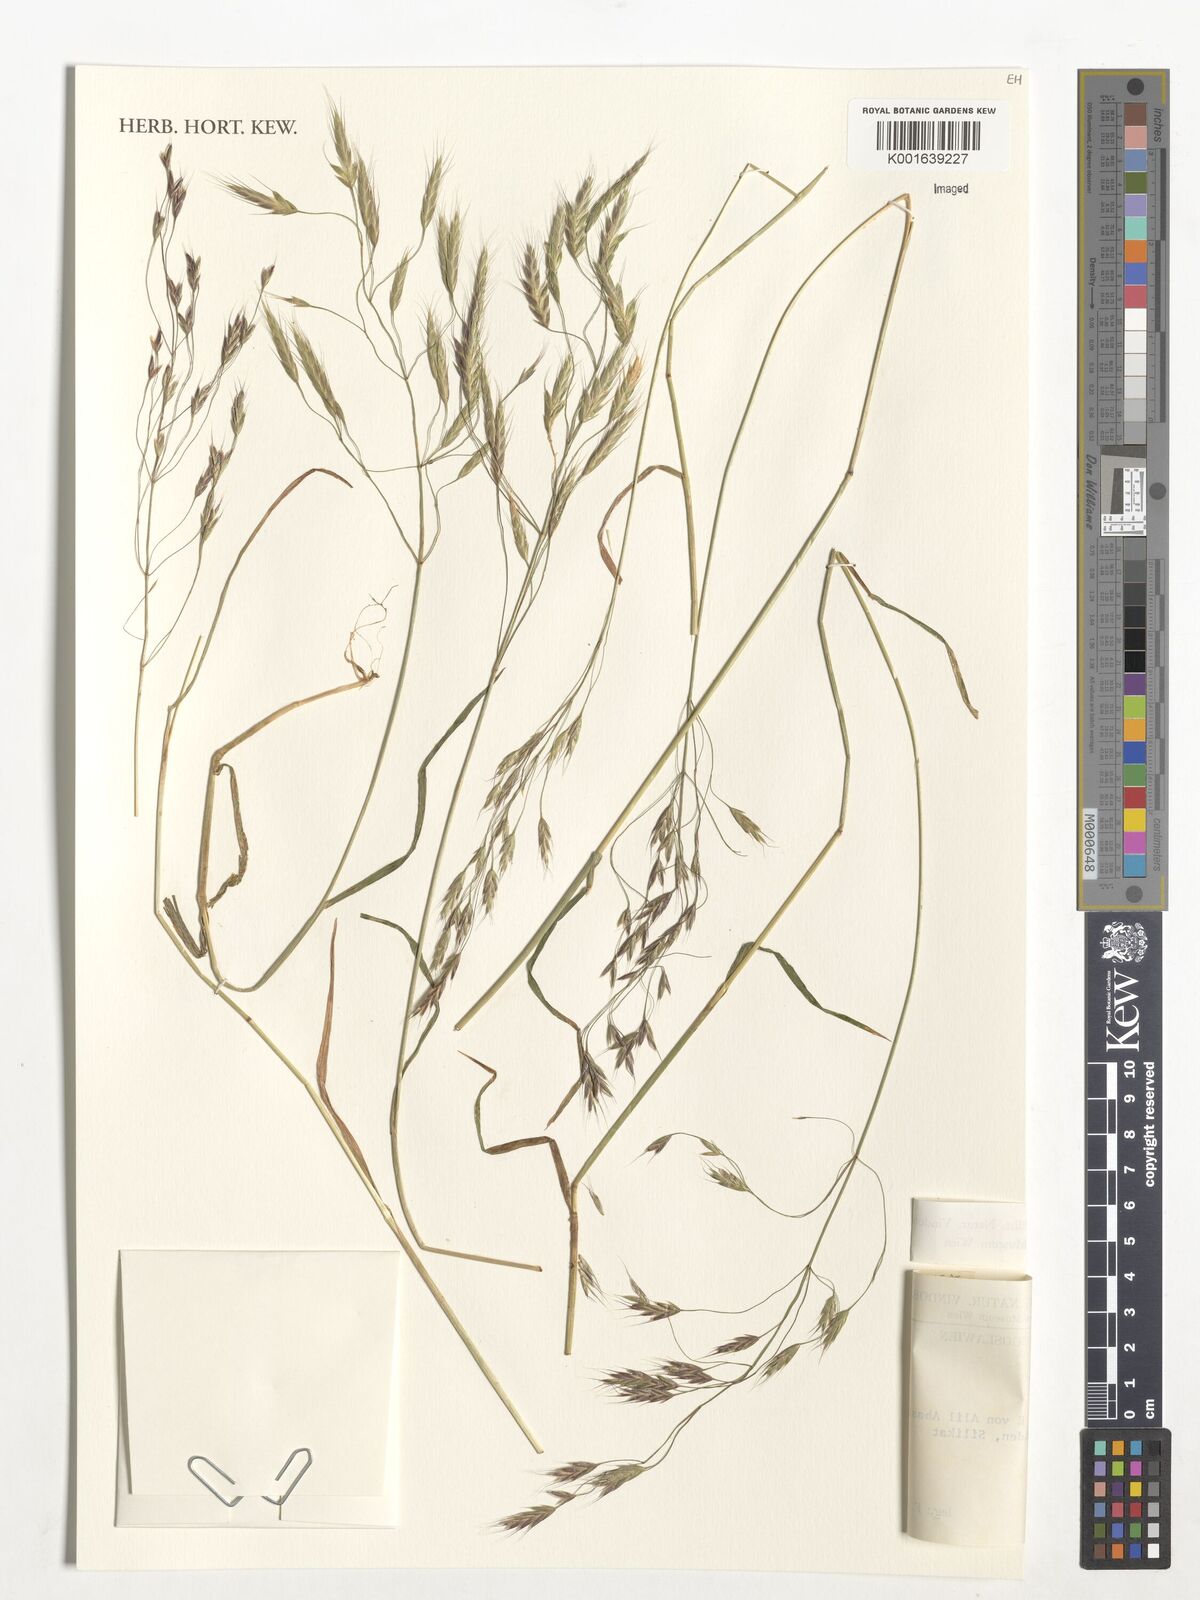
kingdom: Plantae
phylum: Tracheophyta
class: Liliopsida
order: Poales
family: Poaceae
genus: Bromus
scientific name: Bromus arvensis
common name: Field brome
